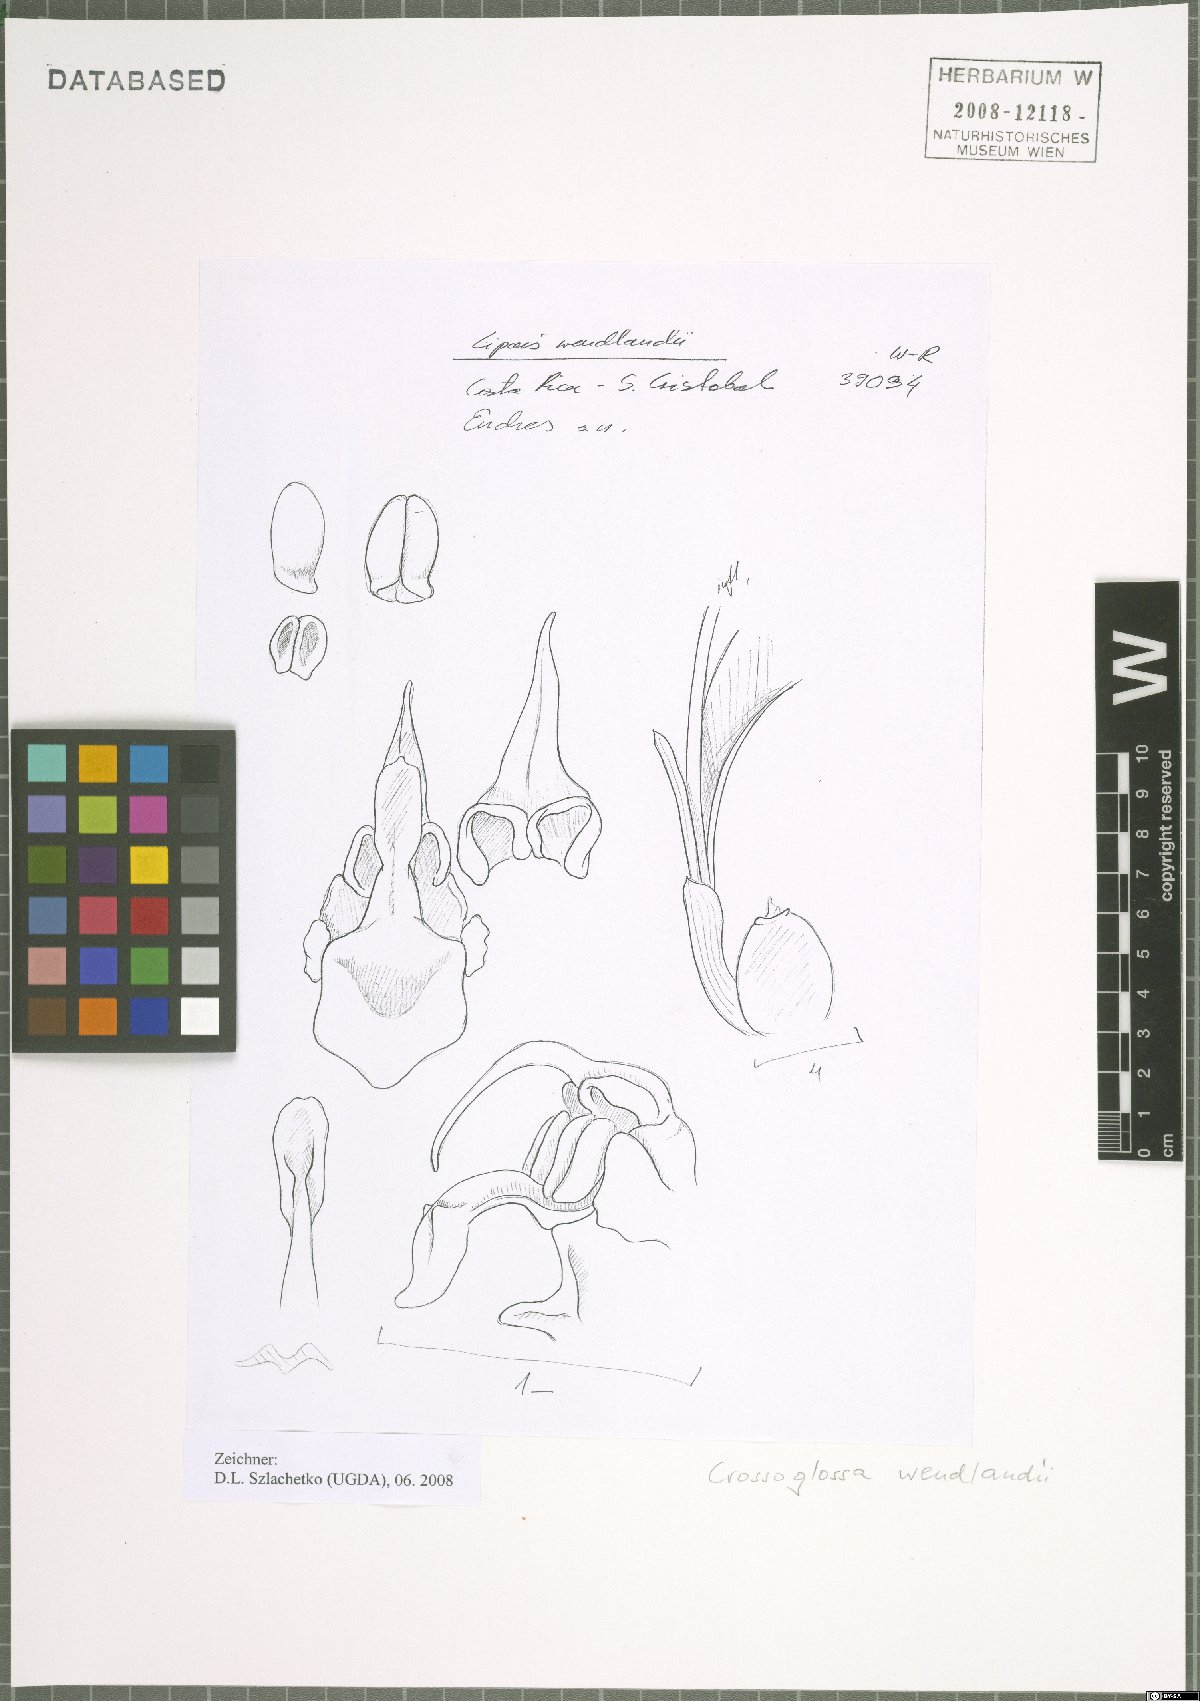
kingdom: Plantae
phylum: Tracheophyta
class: Liliopsida
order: Asparagales
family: Orchidaceae
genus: Crossoliparis
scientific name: Crossoliparis wendlandii
